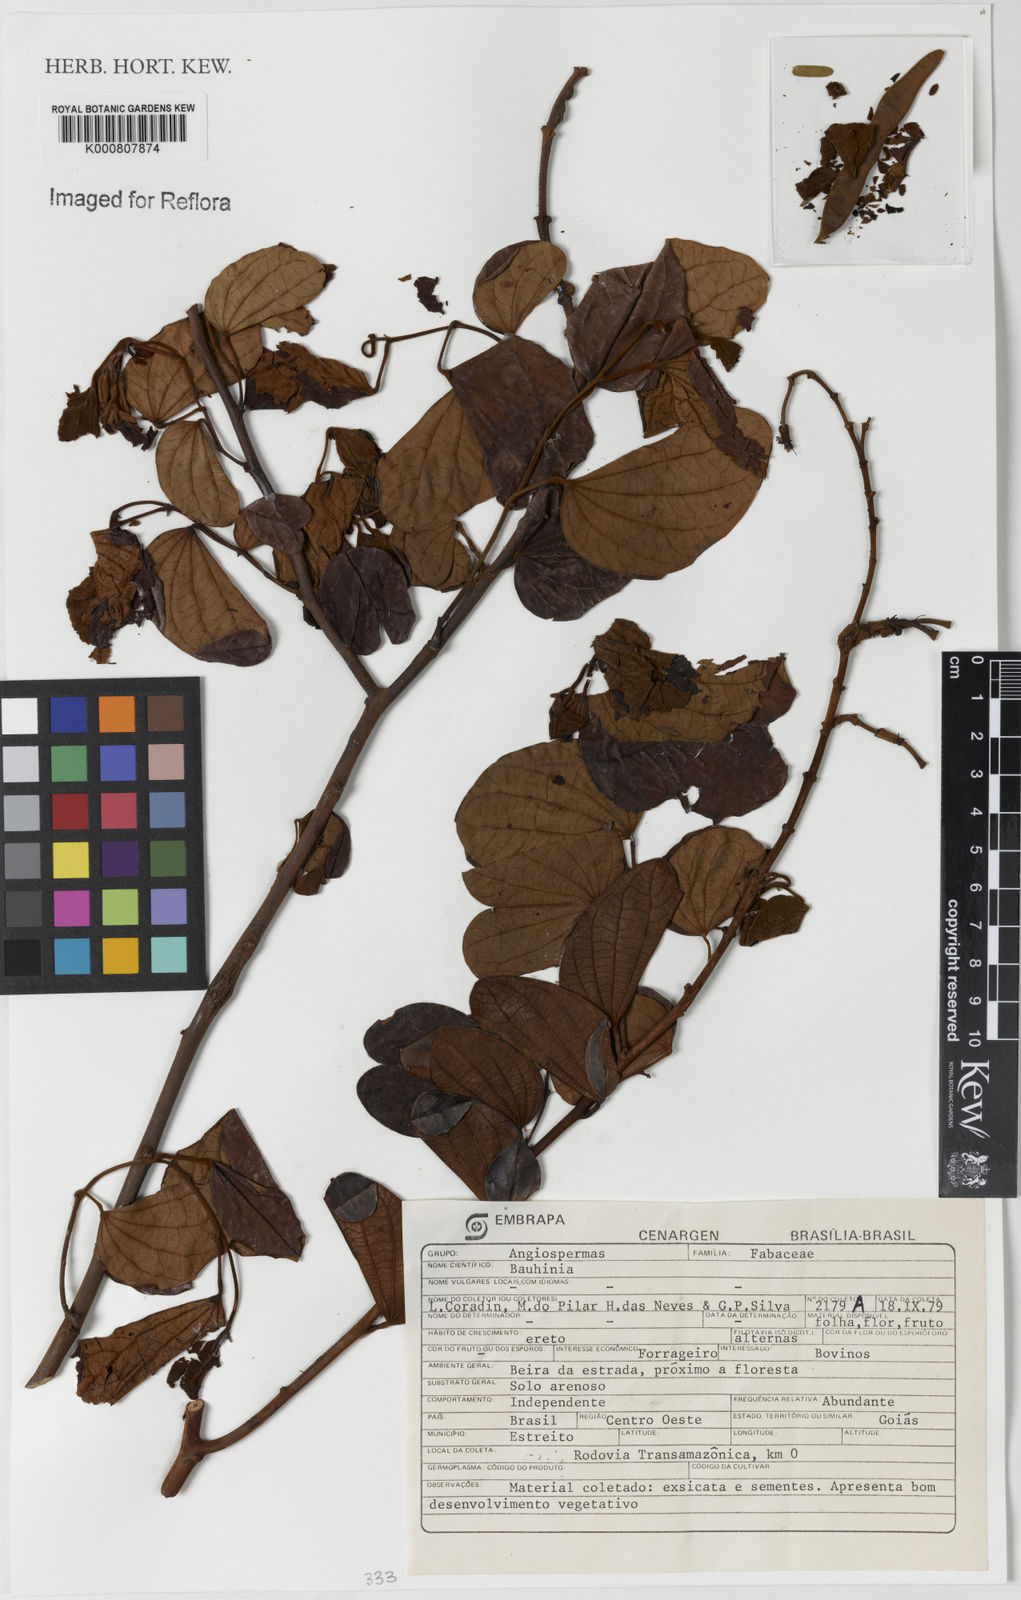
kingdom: Plantae
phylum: Tracheophyta
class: Magnoliopsida
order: Fabales
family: Fabaceae
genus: Bauhinia
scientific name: Bauhinia
